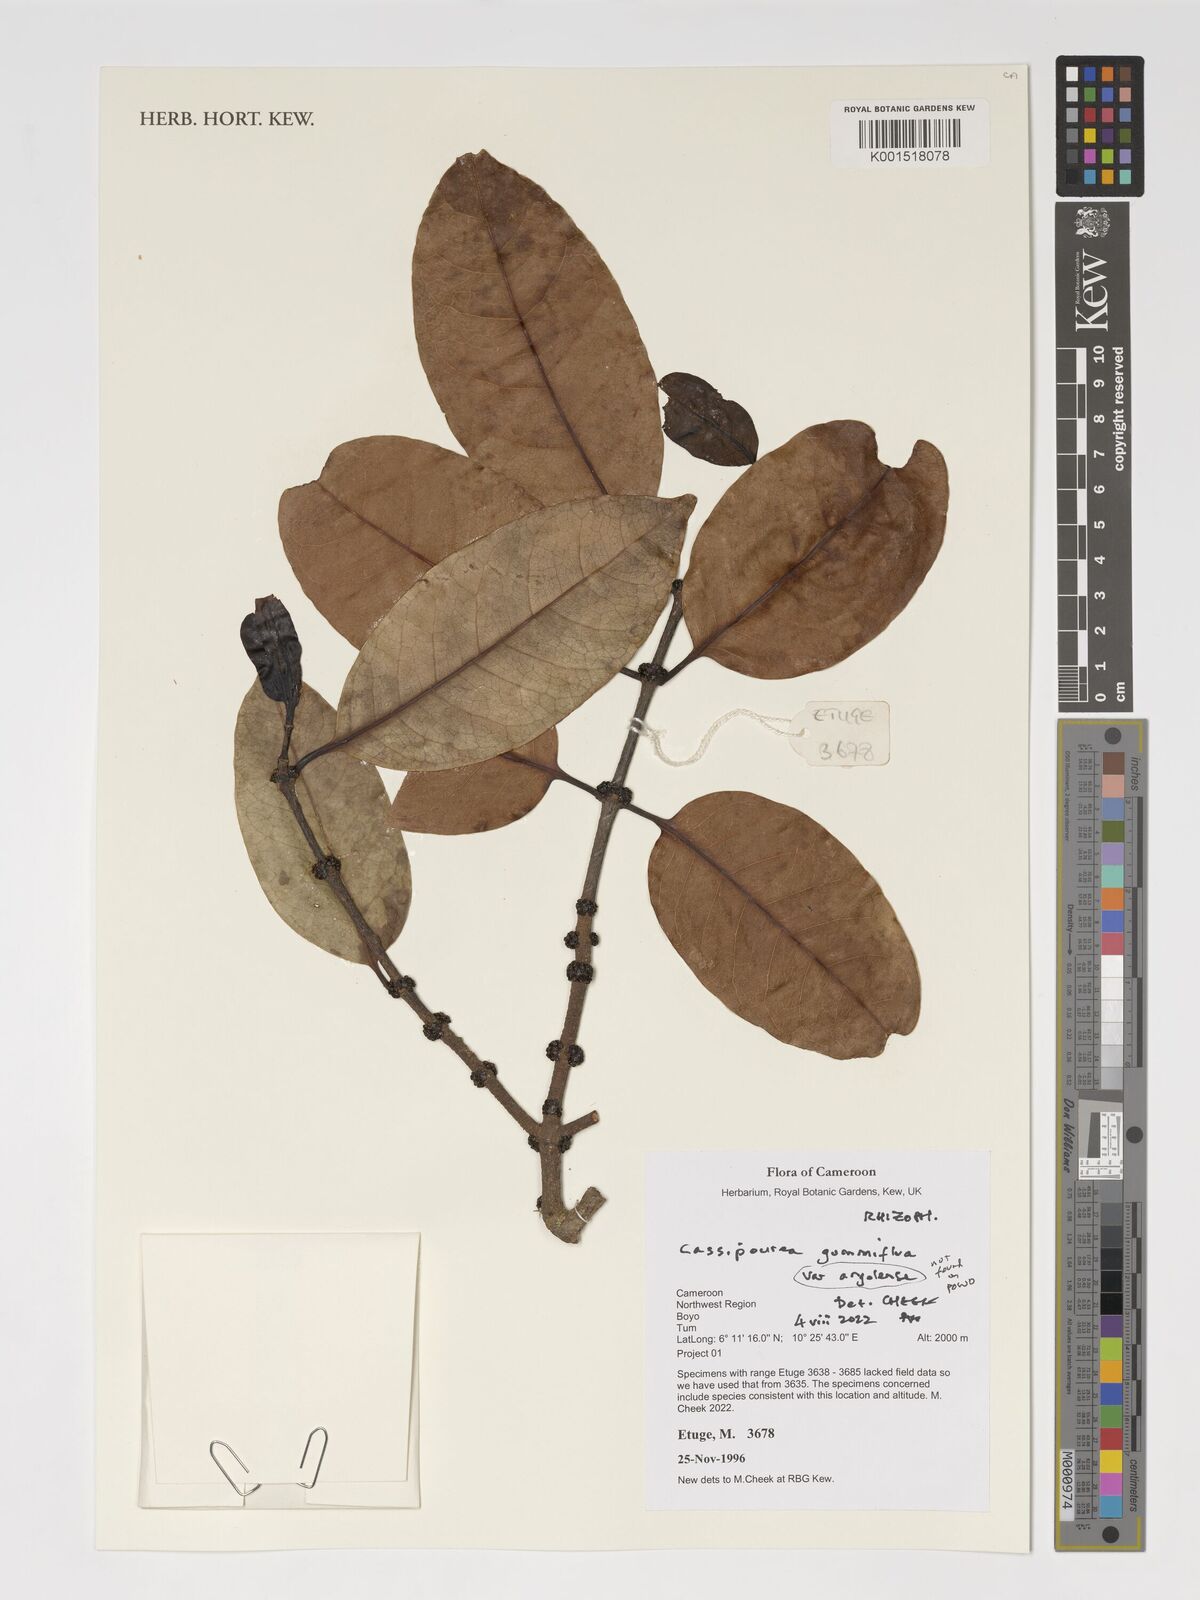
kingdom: Plantae
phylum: Tracheophyta
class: Magnoliopsida
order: Malpighiales
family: Rhizophoraceae
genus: Cassipourea
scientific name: Cassipourea gummiflua
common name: Large-leaved onionwood
